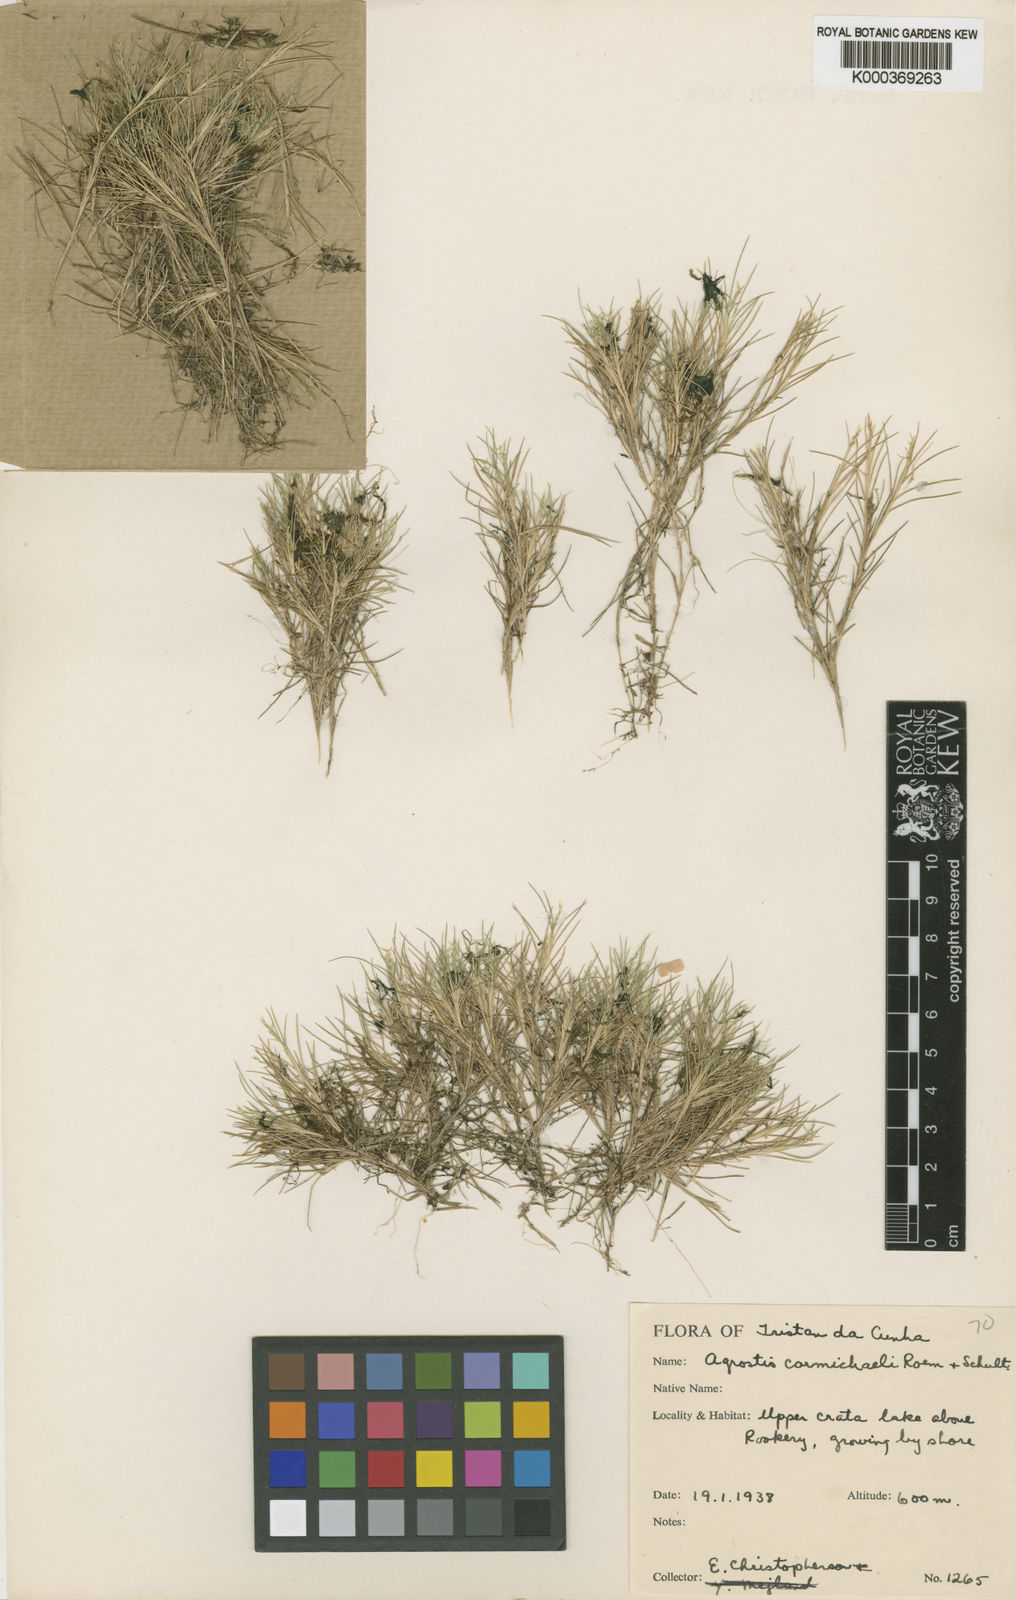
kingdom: Plantae
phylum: Tracheophyta
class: Liliopsida
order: Poales
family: Poaceae
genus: Agrostis
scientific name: Agrostis carmichaelii
